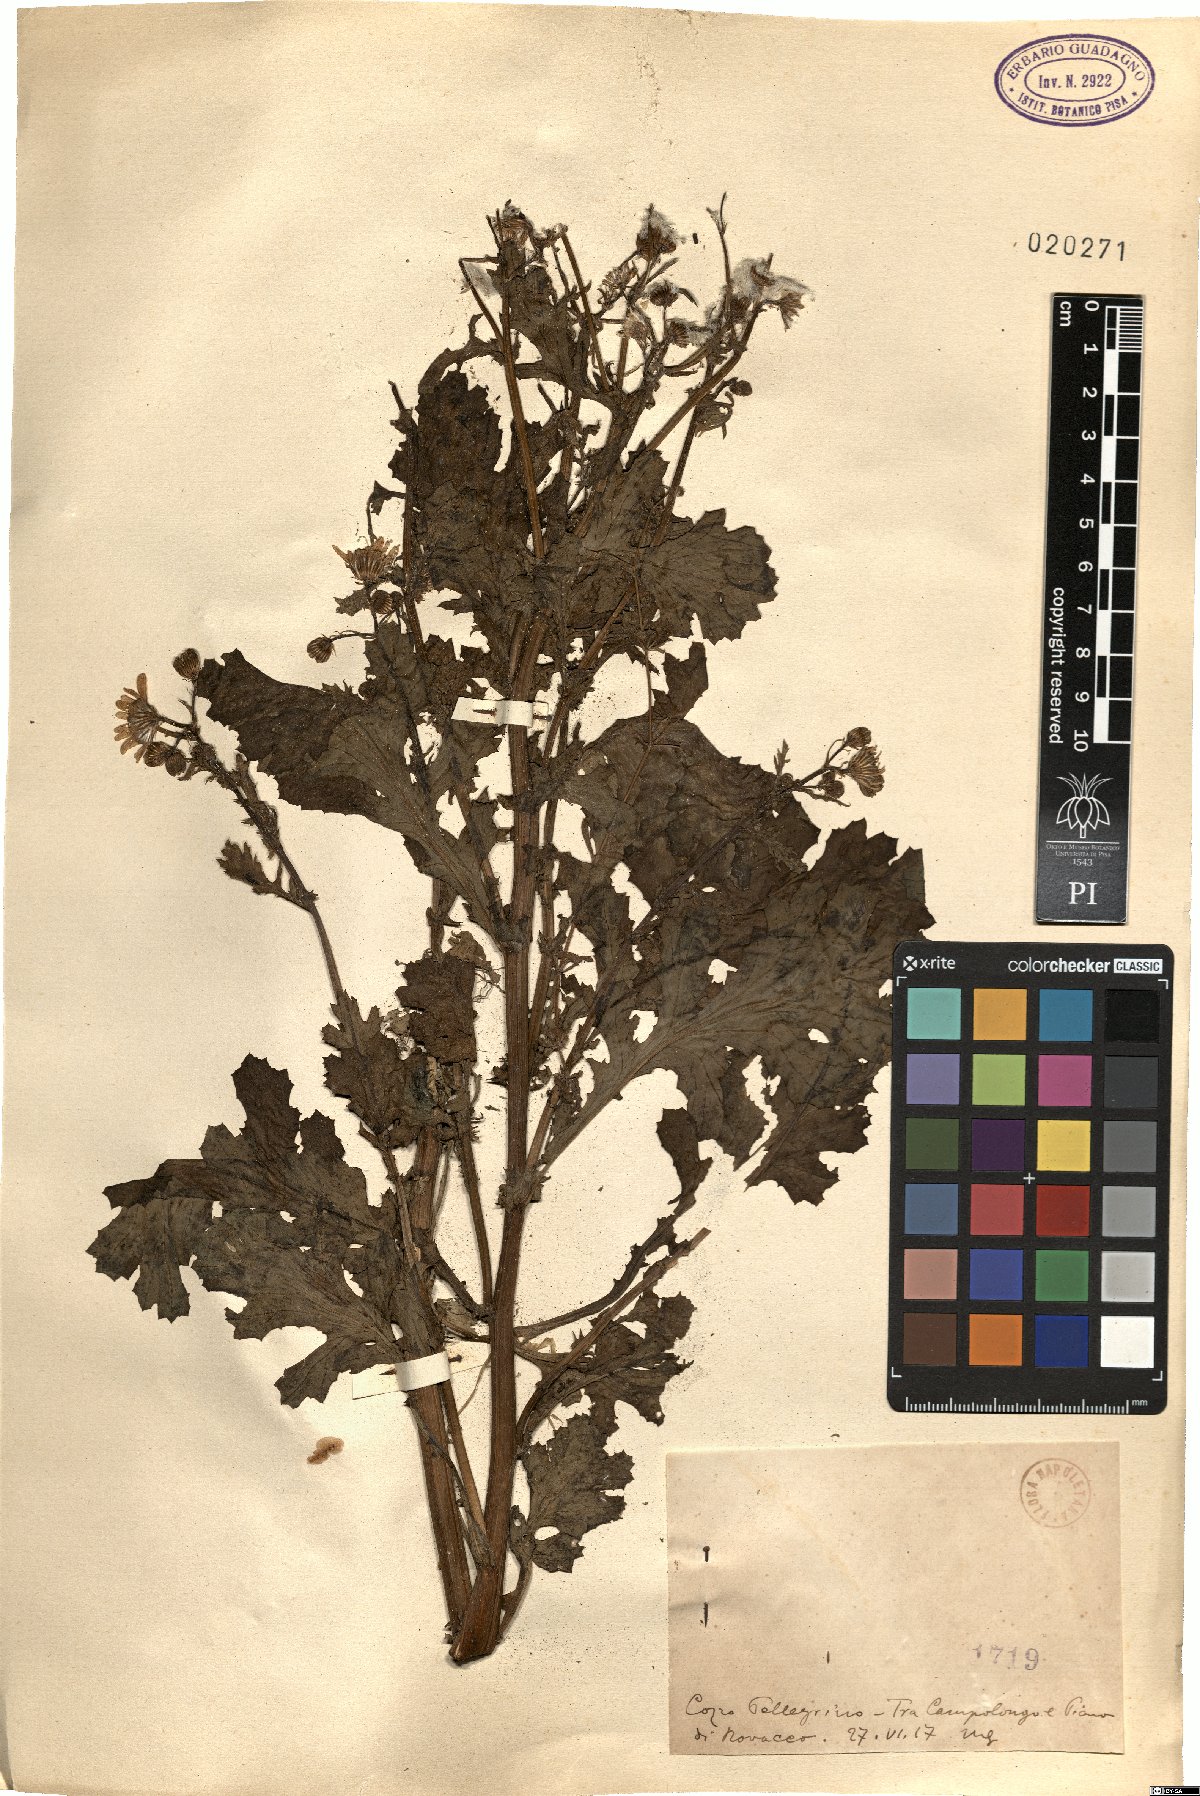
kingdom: Plantae
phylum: Tracheophyta
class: Magnoliopsida
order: Asterales
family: Asteraceae
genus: Senecio
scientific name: Senecio
